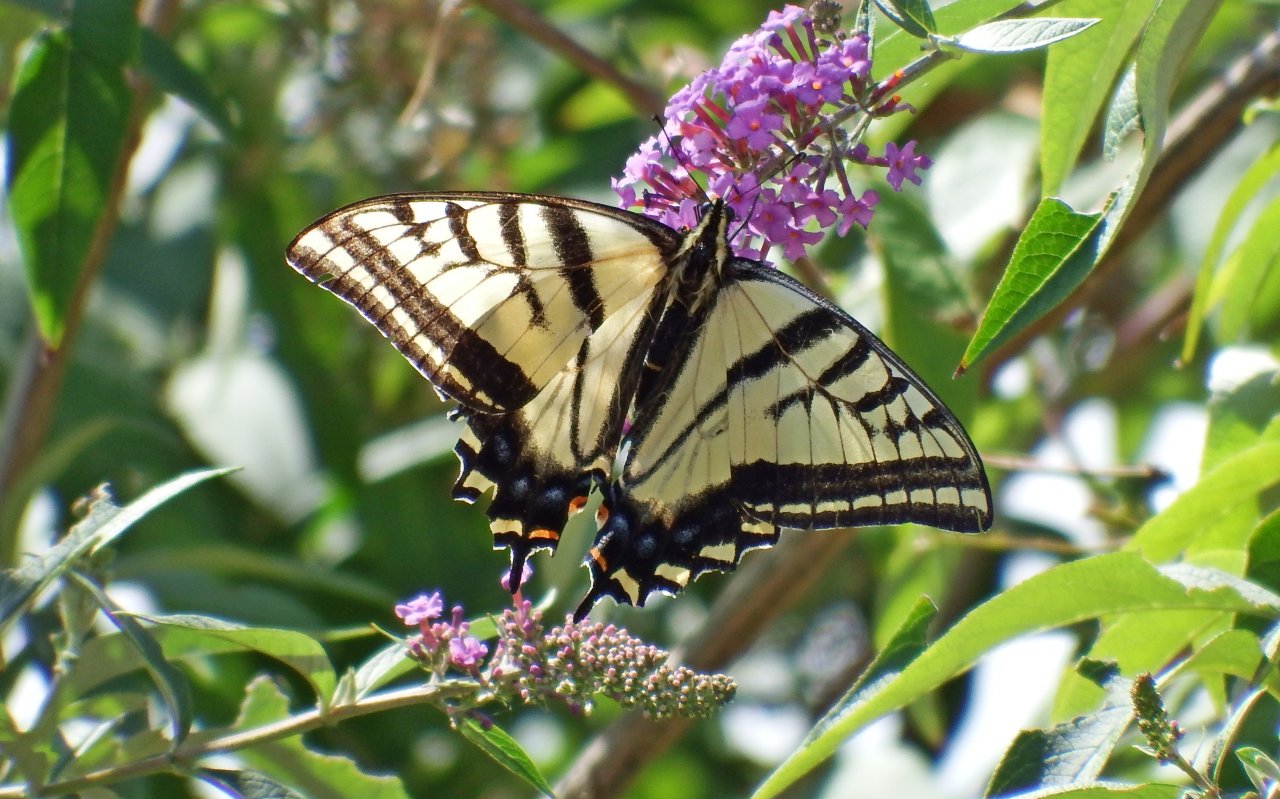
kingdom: Animalia
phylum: Arthropoda
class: Insecta
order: Lepidoptera
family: Papilionidae
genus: Pterourus
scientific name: Pterourus rutulus
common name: Western Tiger Swallowtail
